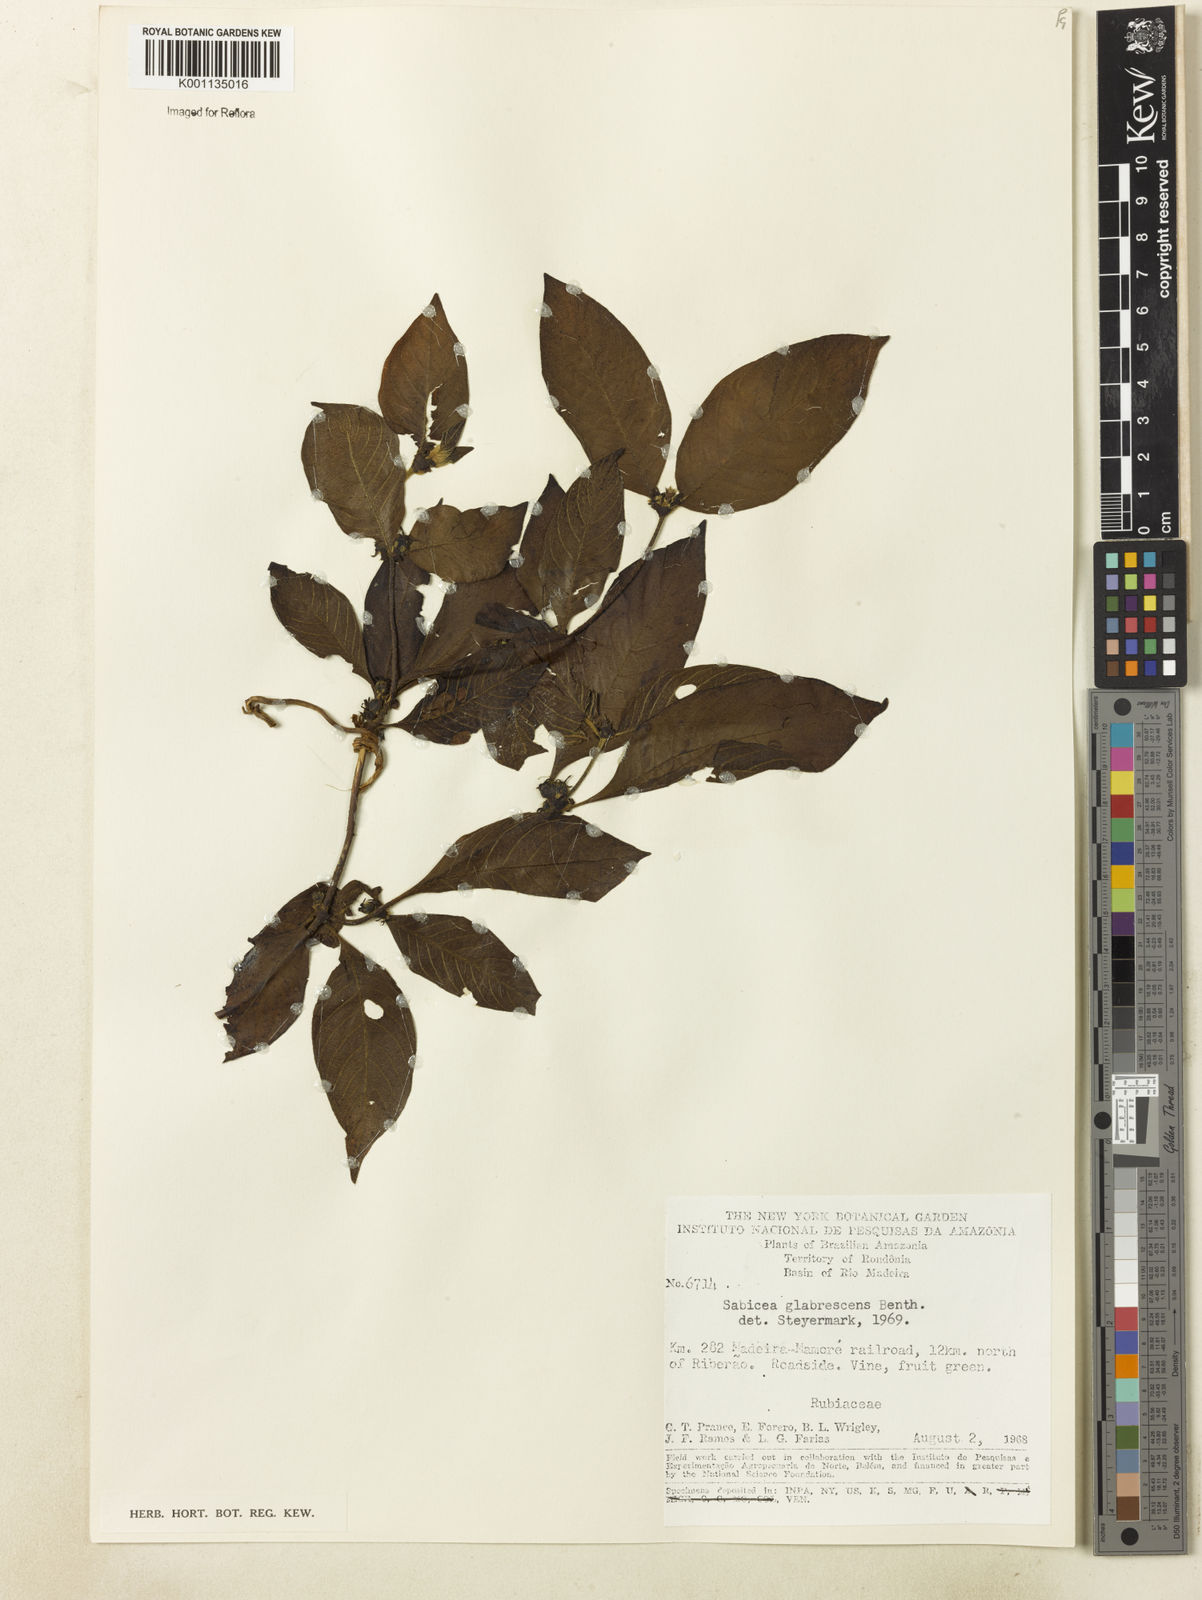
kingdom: Plantae
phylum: Tracheophyta
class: Magnoliopsida
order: Gentianales
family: Rubiaceae
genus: Sabicea
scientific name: Sabicea glabrescens
